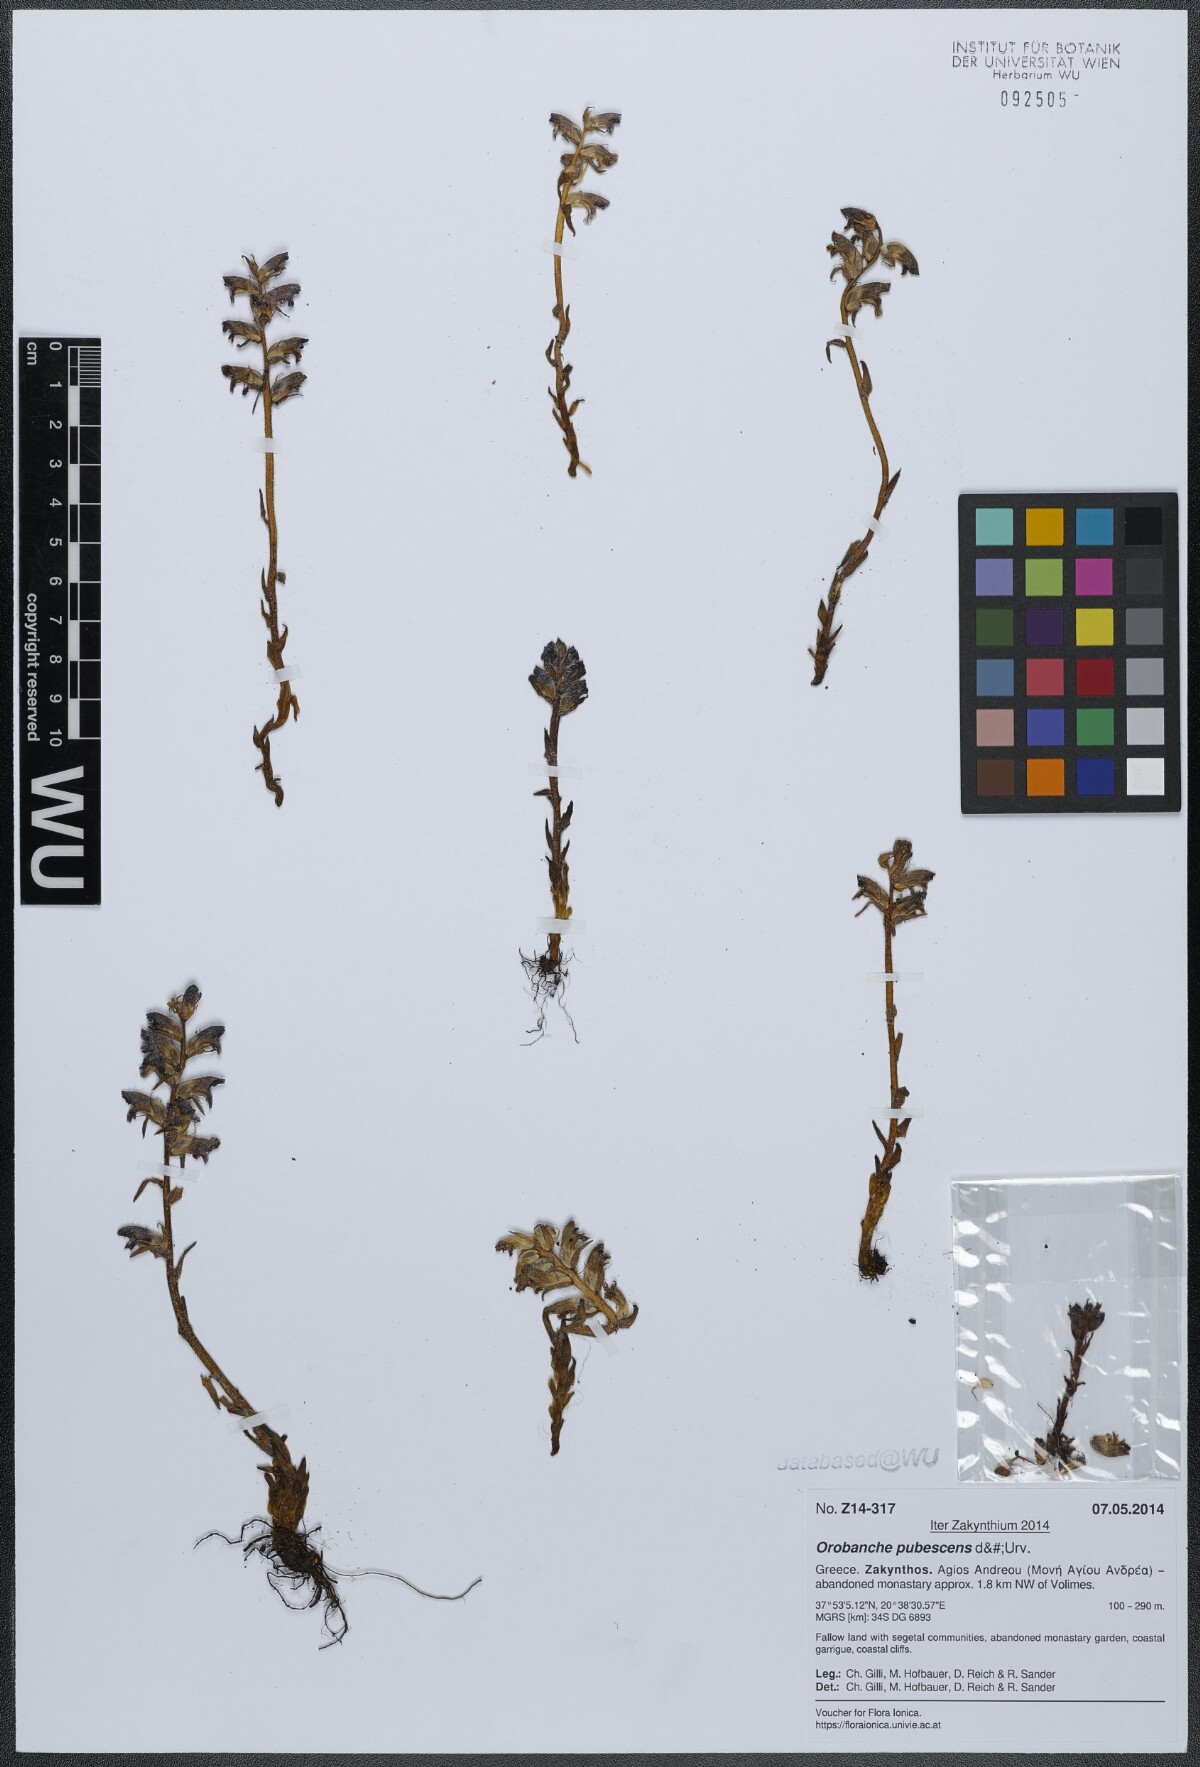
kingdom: Plantae
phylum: Tracheophyta
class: Magnoliopsida
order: Lamiales
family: Orobanchaceae
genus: Orobanche
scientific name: Orobanche pubescens
